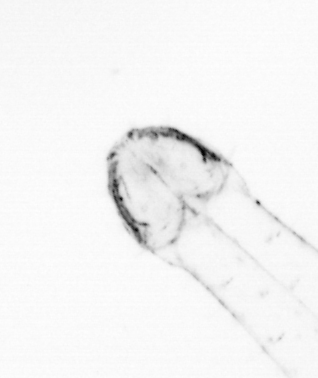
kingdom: Animalia
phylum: Chaetognatha
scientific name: Chaetognatha
